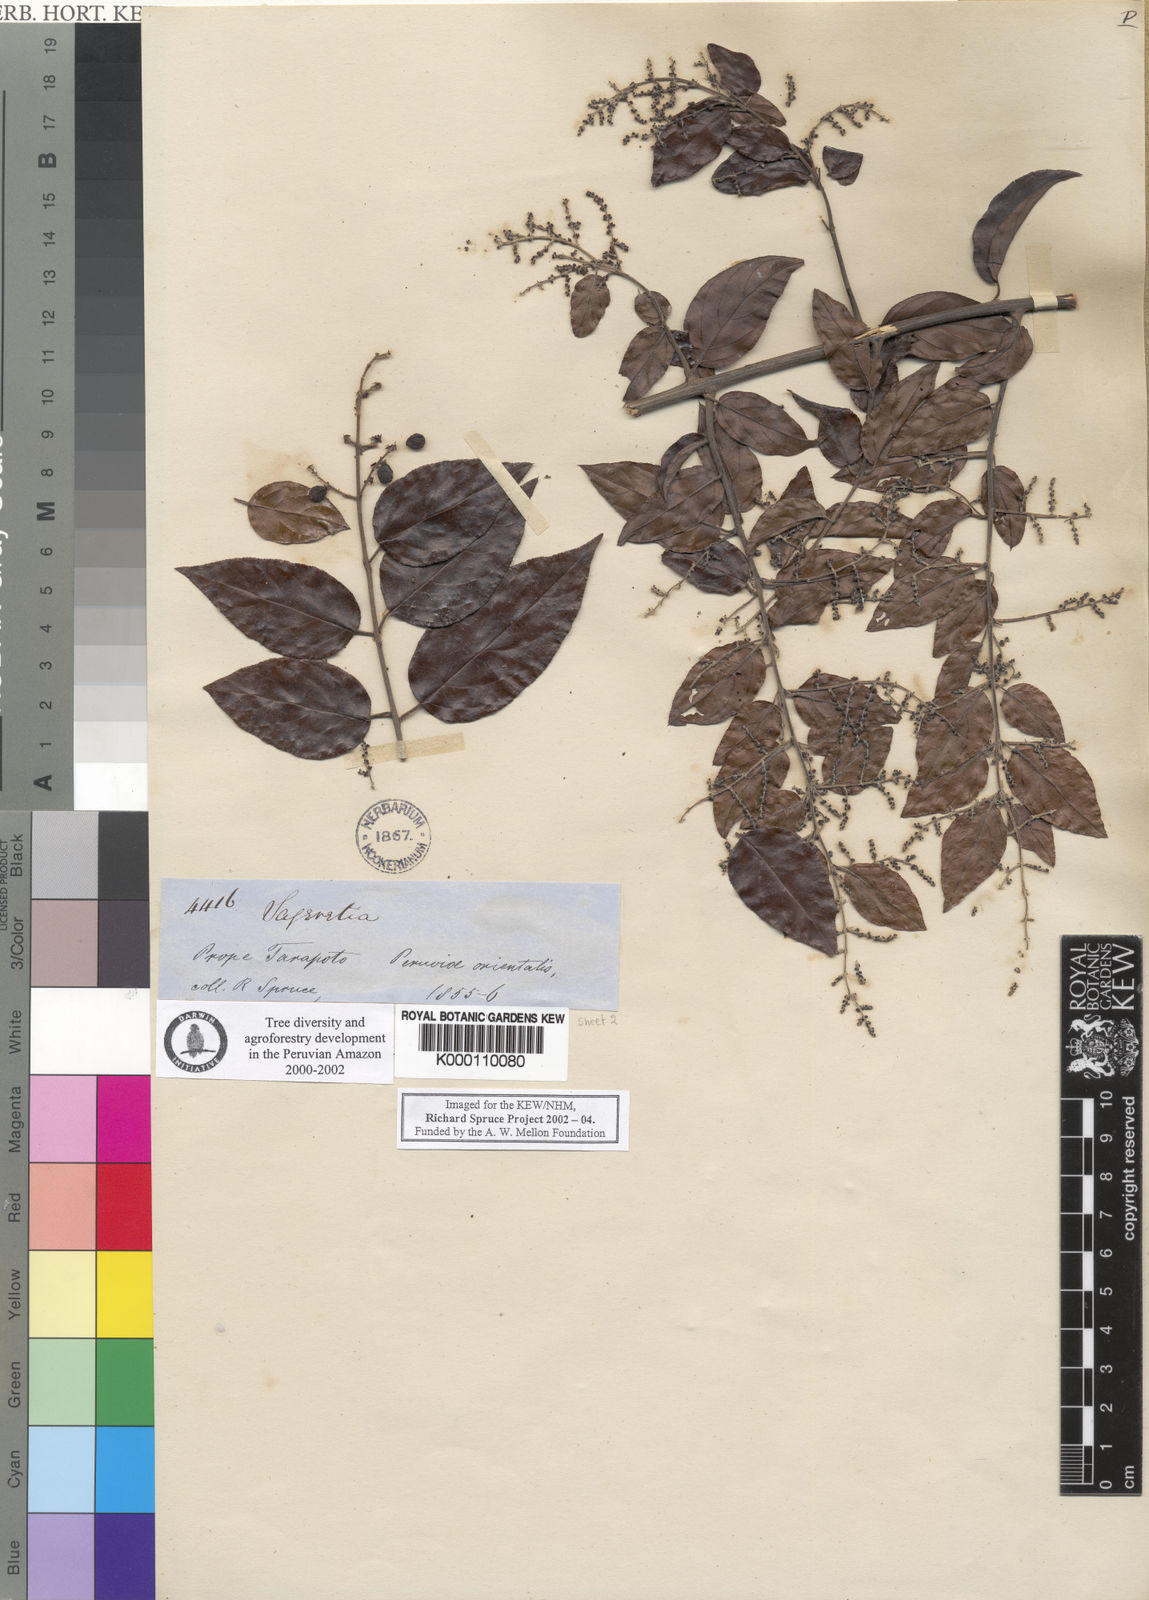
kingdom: Plantae
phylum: Tracheophyta
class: Magnoliopsida
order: Rosales
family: Rhamnaceae
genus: Sageretia
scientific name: Sageretia elegans
